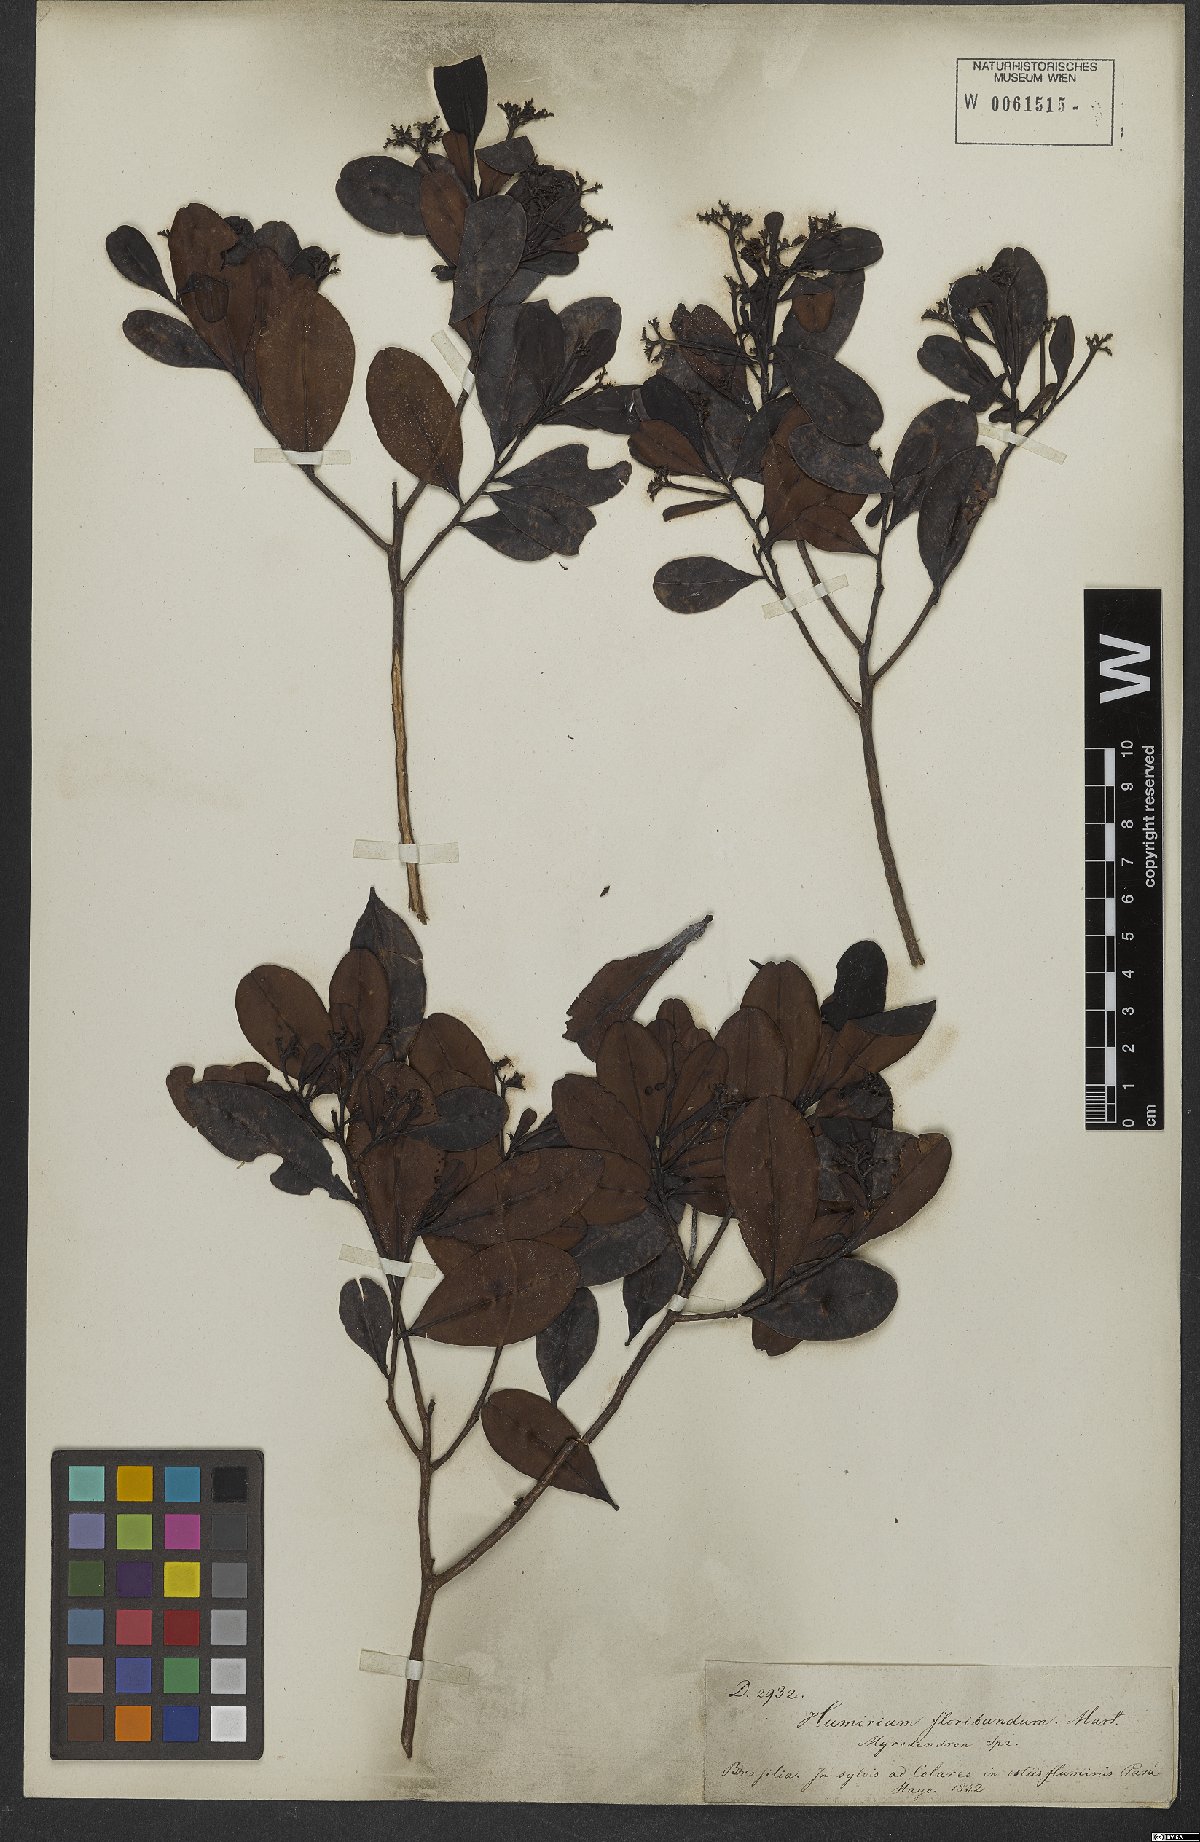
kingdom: Plantae
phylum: Tracheophyta
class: Magnoliopsida
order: Malpighiales
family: Humiriaceae
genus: Humiria
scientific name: Humiria balsamifera
